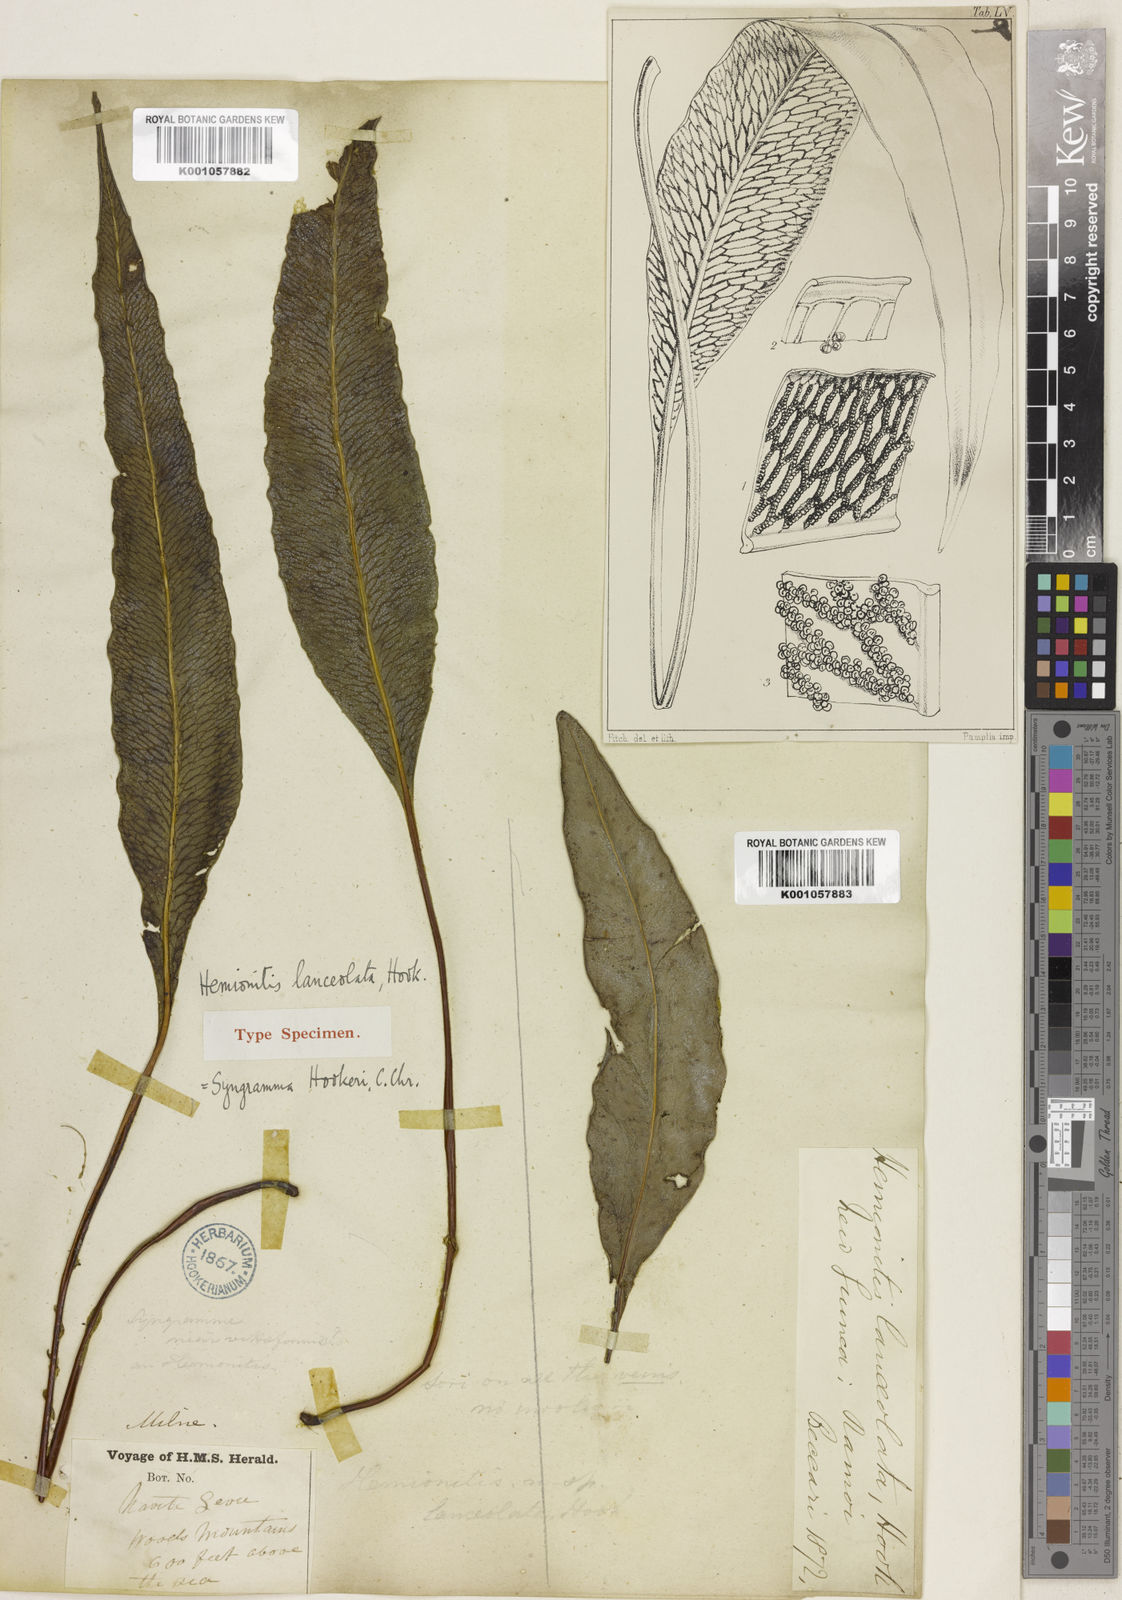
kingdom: Plantae
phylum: Tracheophyta
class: Polypodiopsida
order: Polypodiales
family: Pteridaceae
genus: Taenitis
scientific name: Taenitis hookeri
